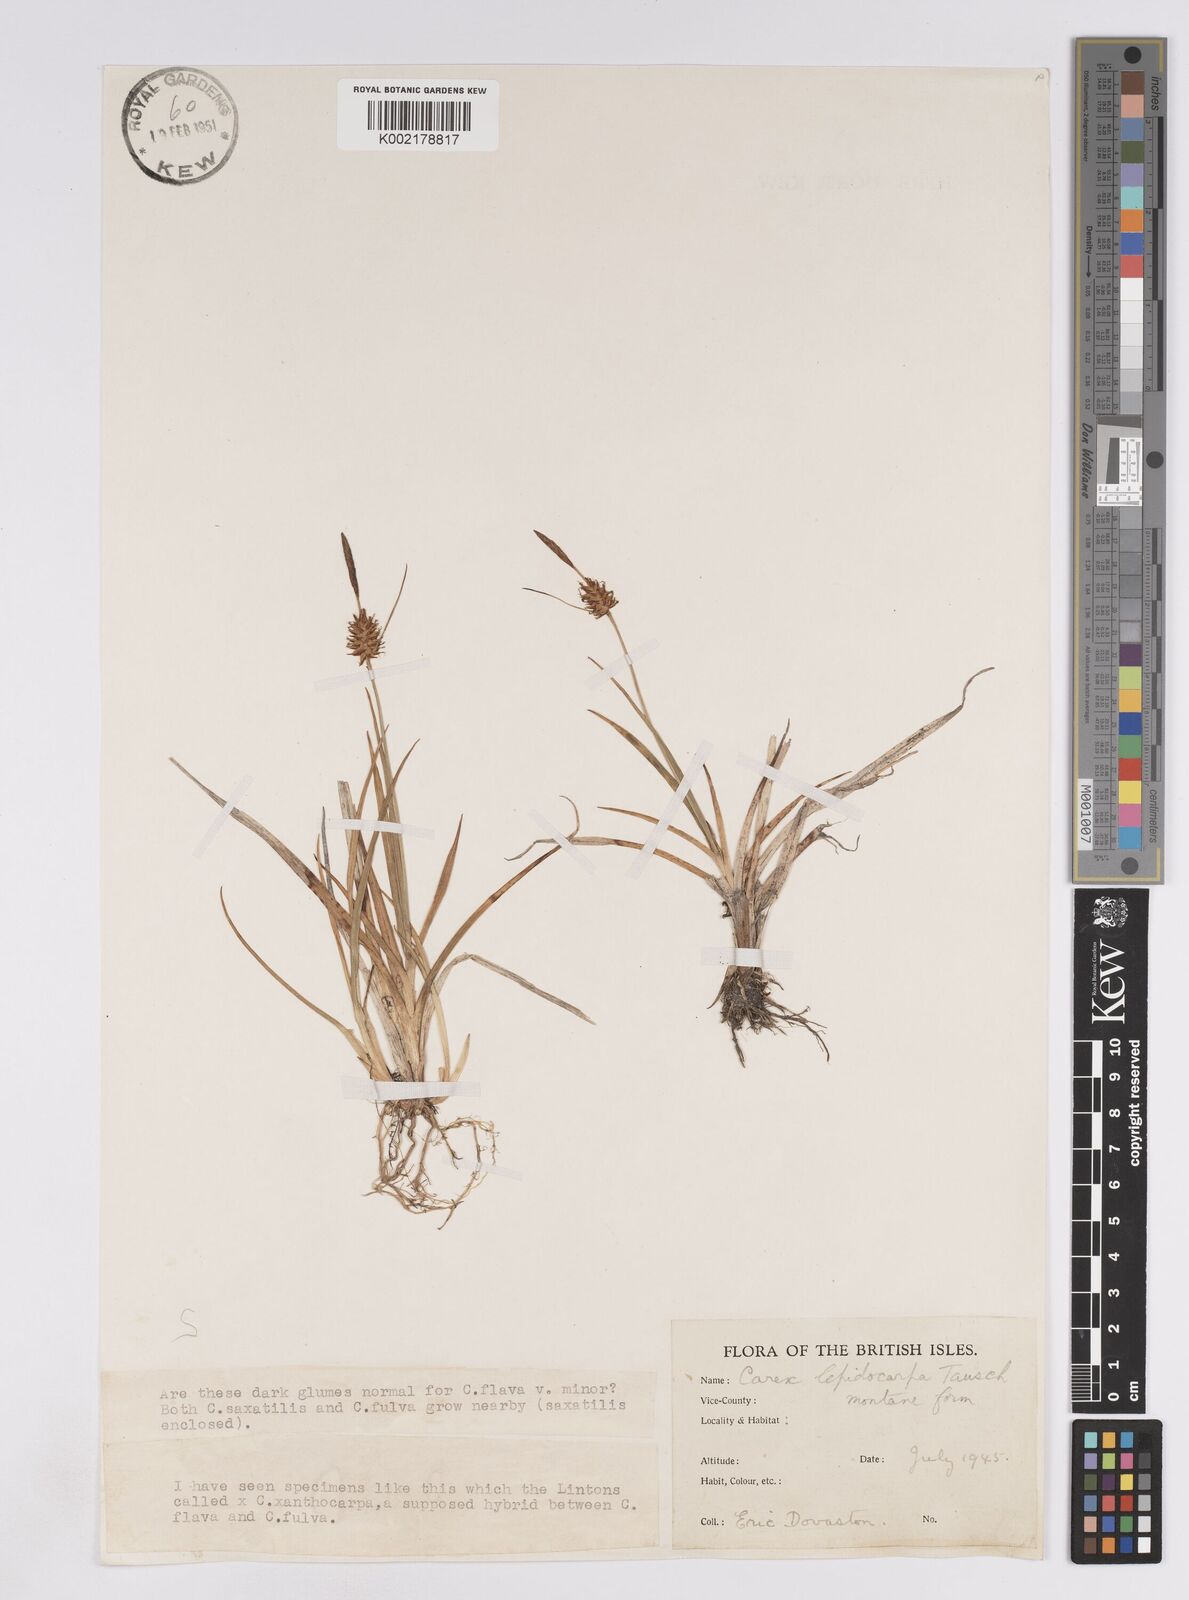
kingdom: Plantae
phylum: Tracheophyta
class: Liliopsida
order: Poales
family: Cyperaceae
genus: Carex
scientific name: Carex lepidocarpa
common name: Long-stalked yellow-sedge
